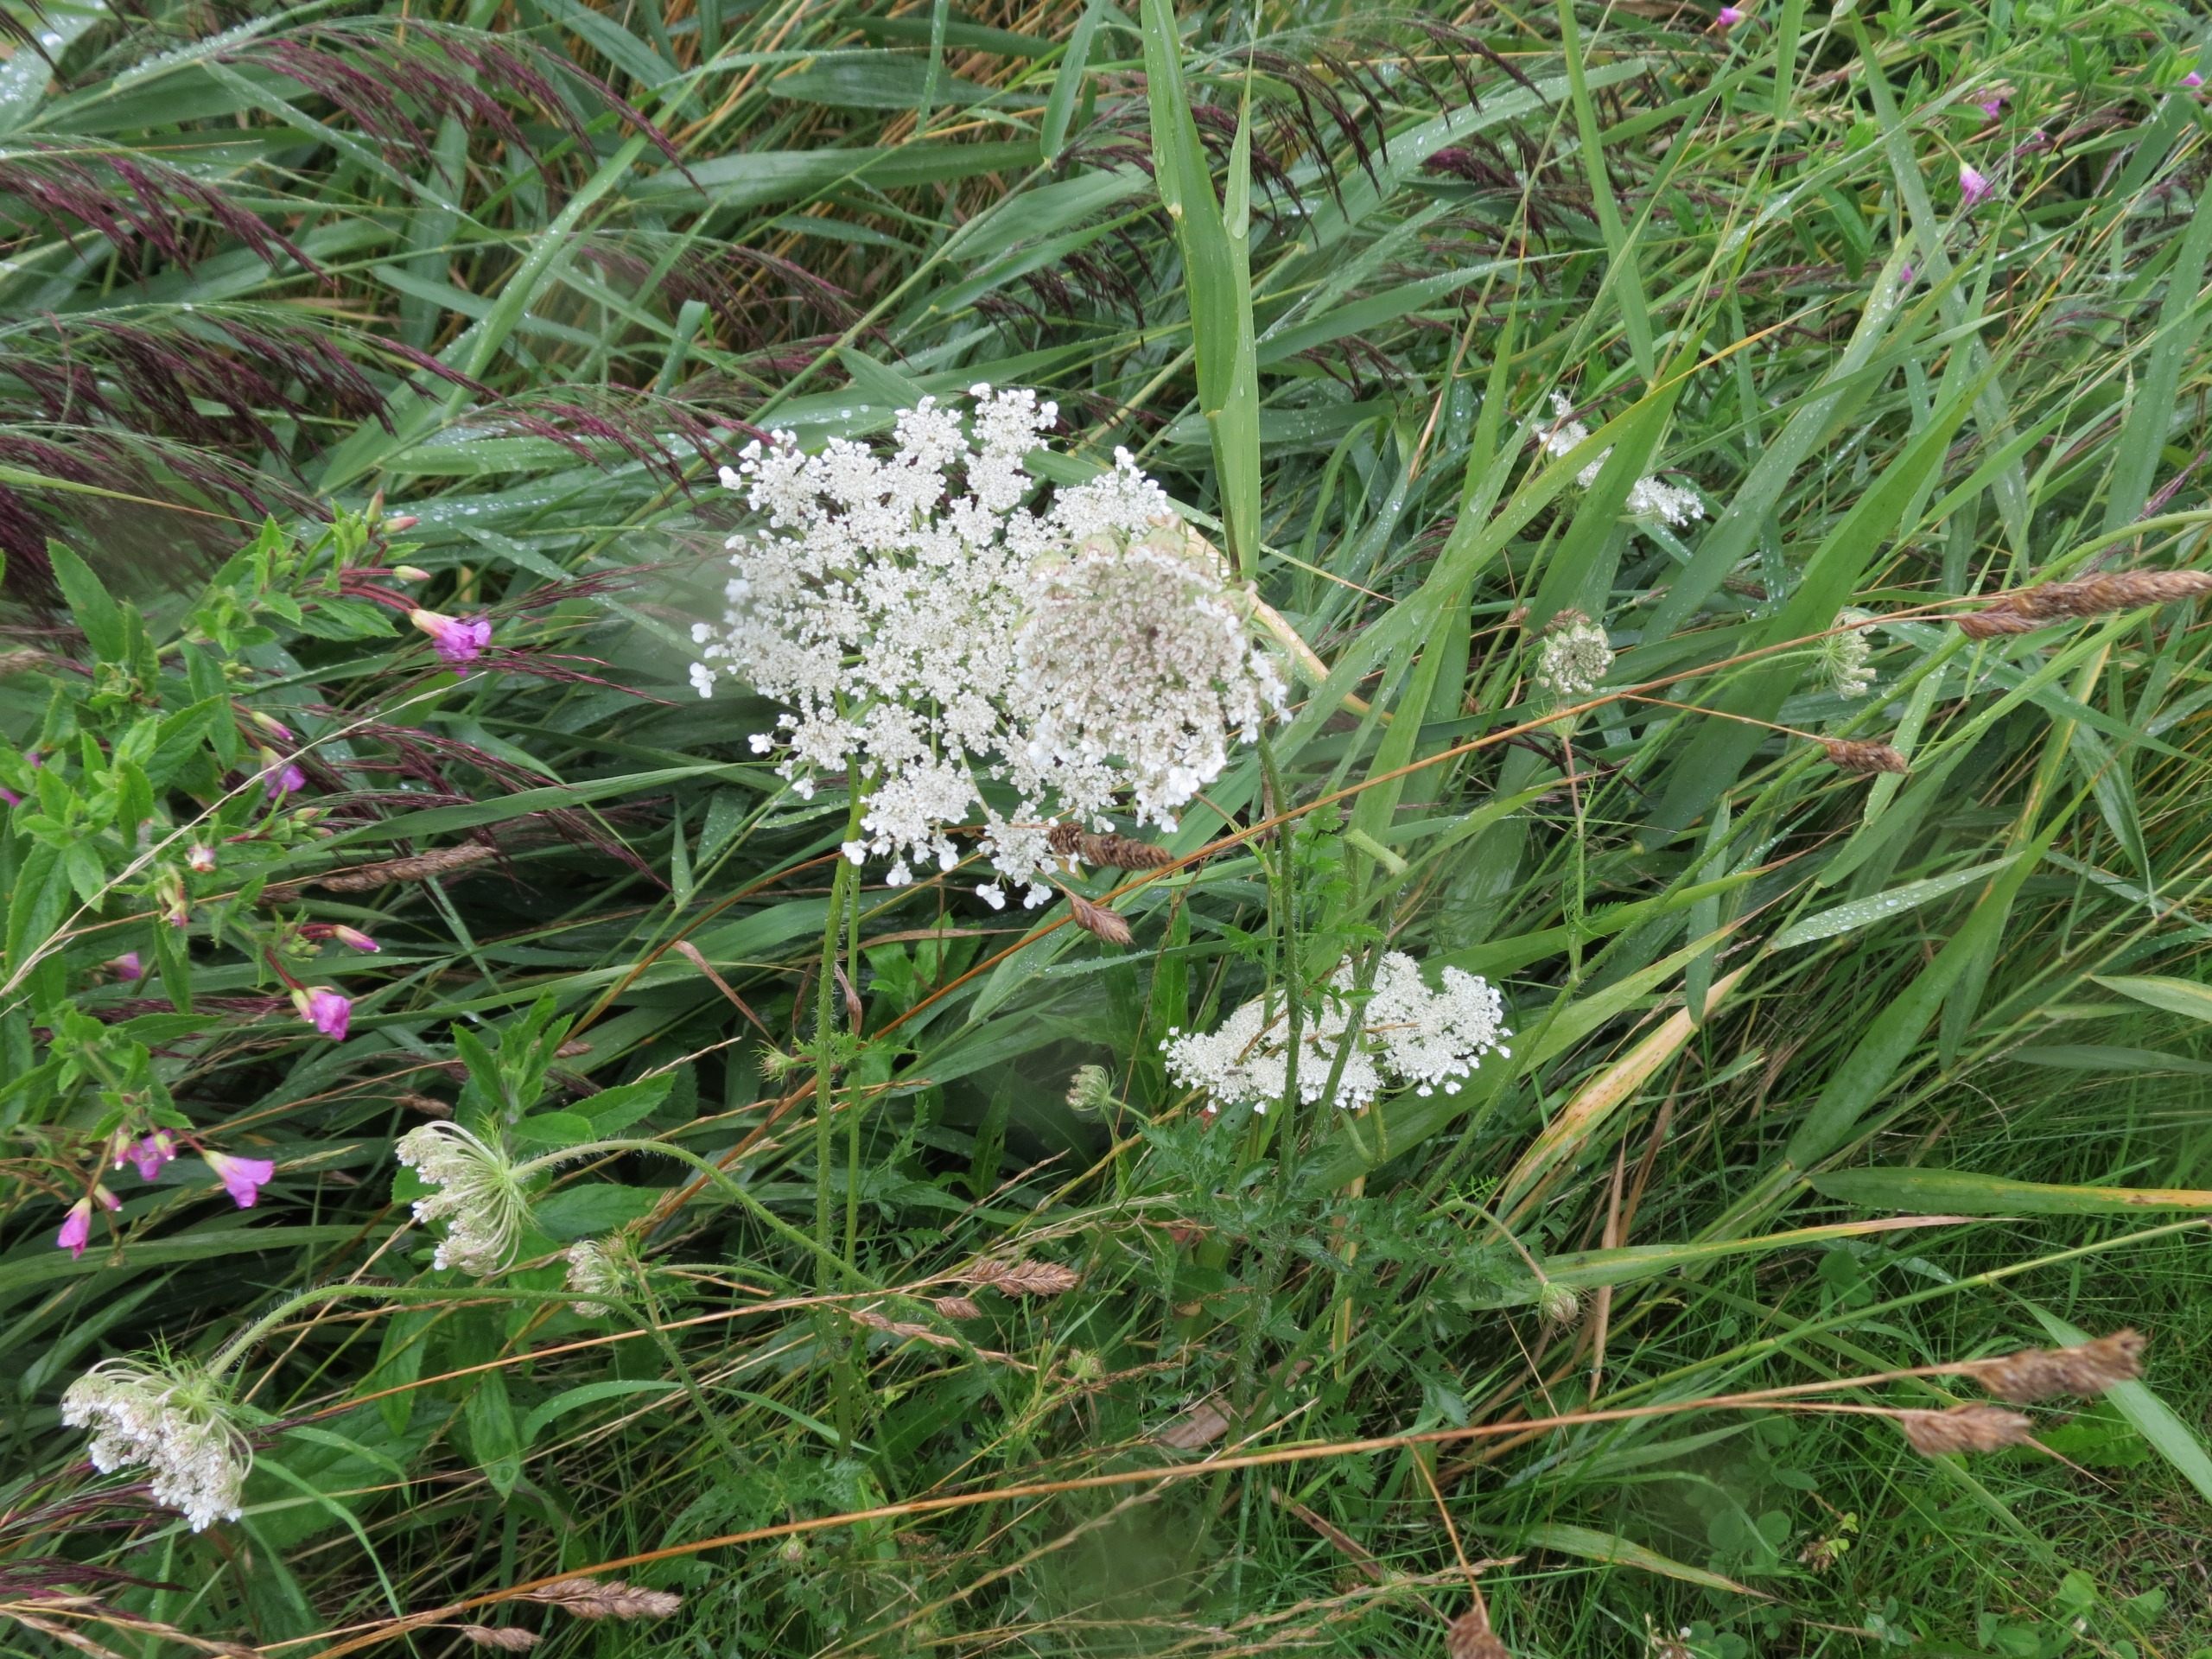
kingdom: Plantae
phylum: Tracheophyta
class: Magnoliopsida
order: Apiales
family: Apiaceae
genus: Daucus
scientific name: Daucus carota
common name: Gulerod
